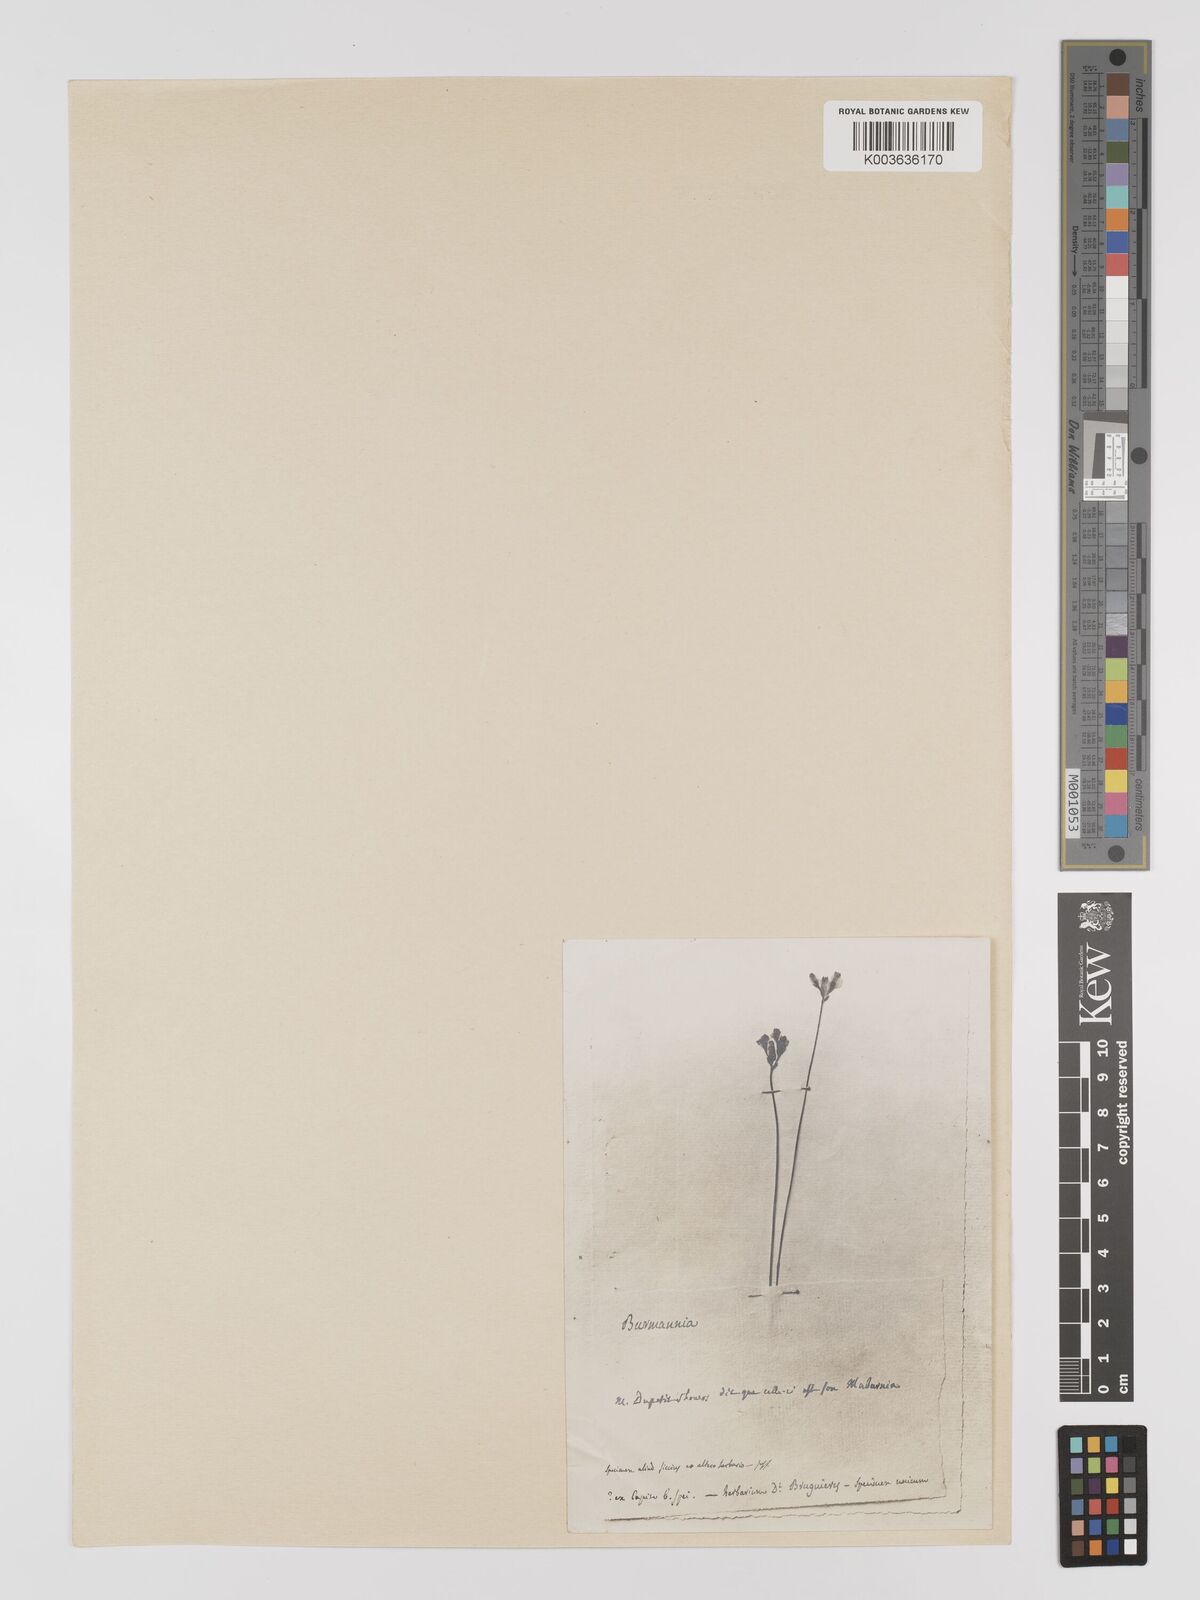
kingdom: Plantae
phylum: Tracheophyta
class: Liliopsida
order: Dioscoreales
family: Burmanniaceae
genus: Burmannia
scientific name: Burmannia madagascariensis
